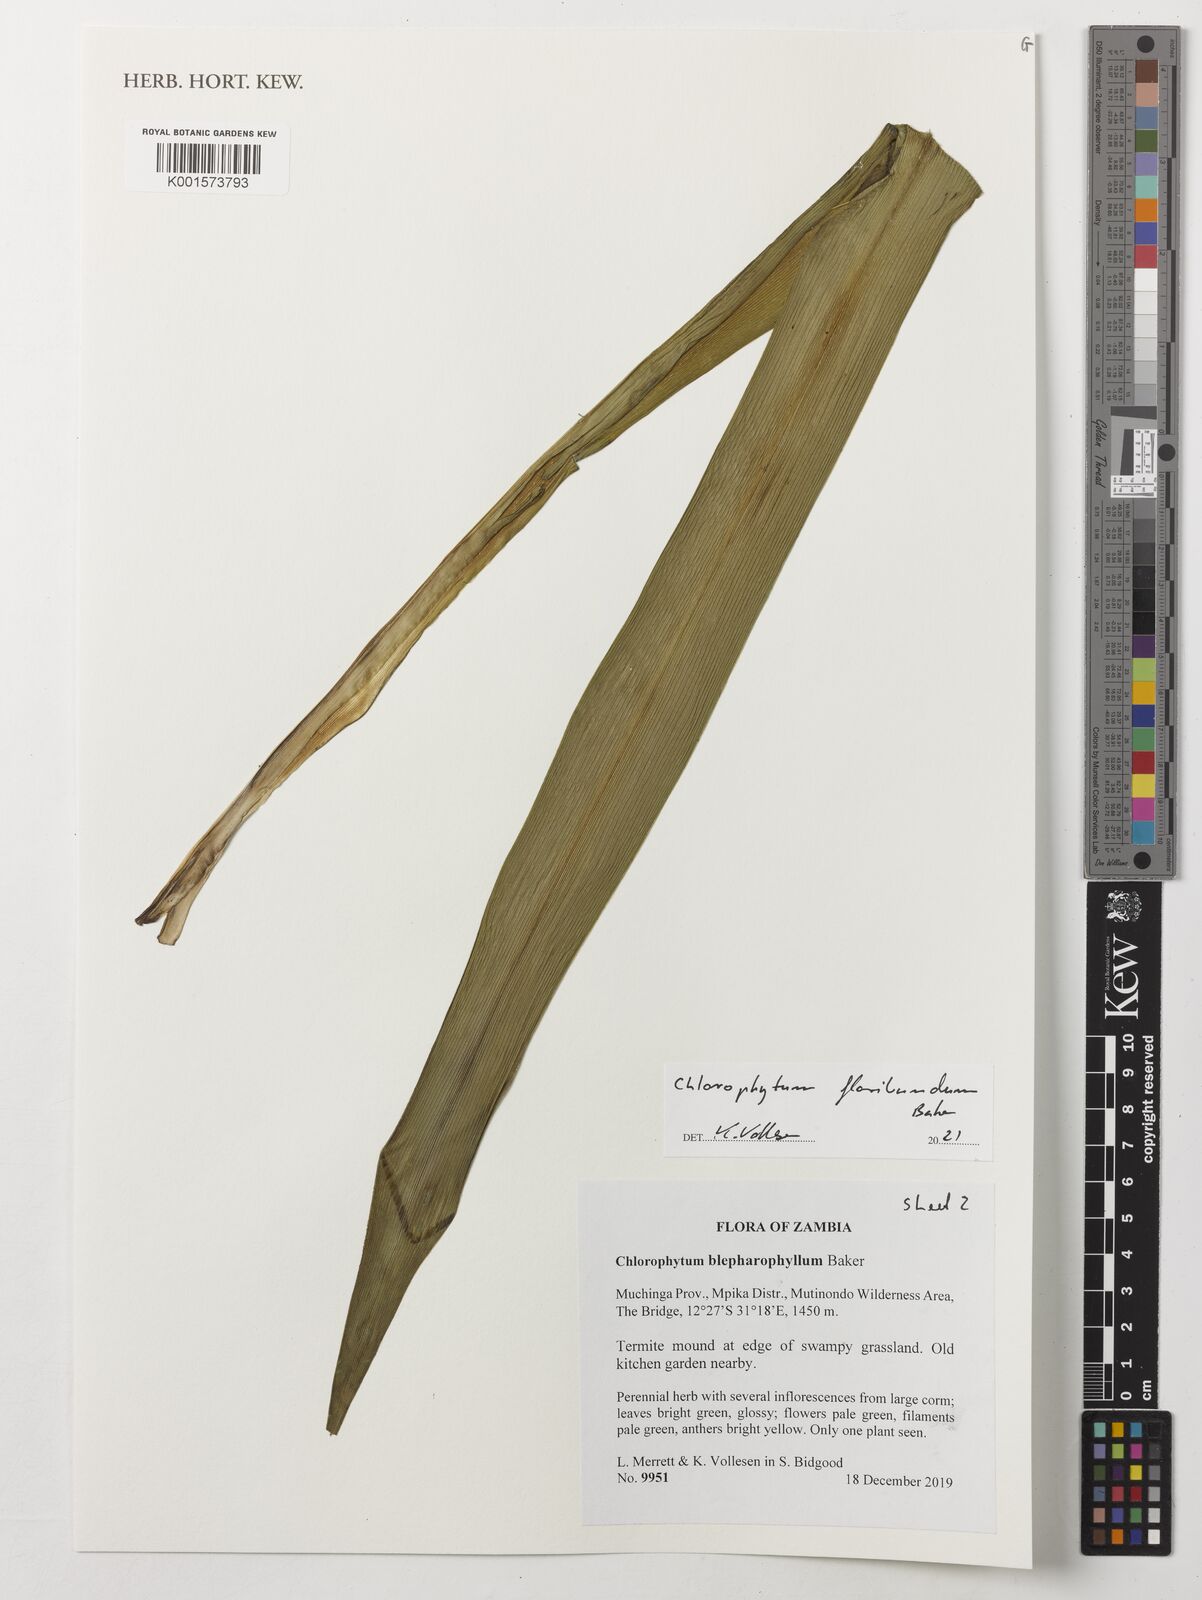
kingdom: Plantae
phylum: Tracheophyta
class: Liliopsida
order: Asparagales
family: Asparagaceae
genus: Chlorophytum
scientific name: Chlorophytum gallabatense
